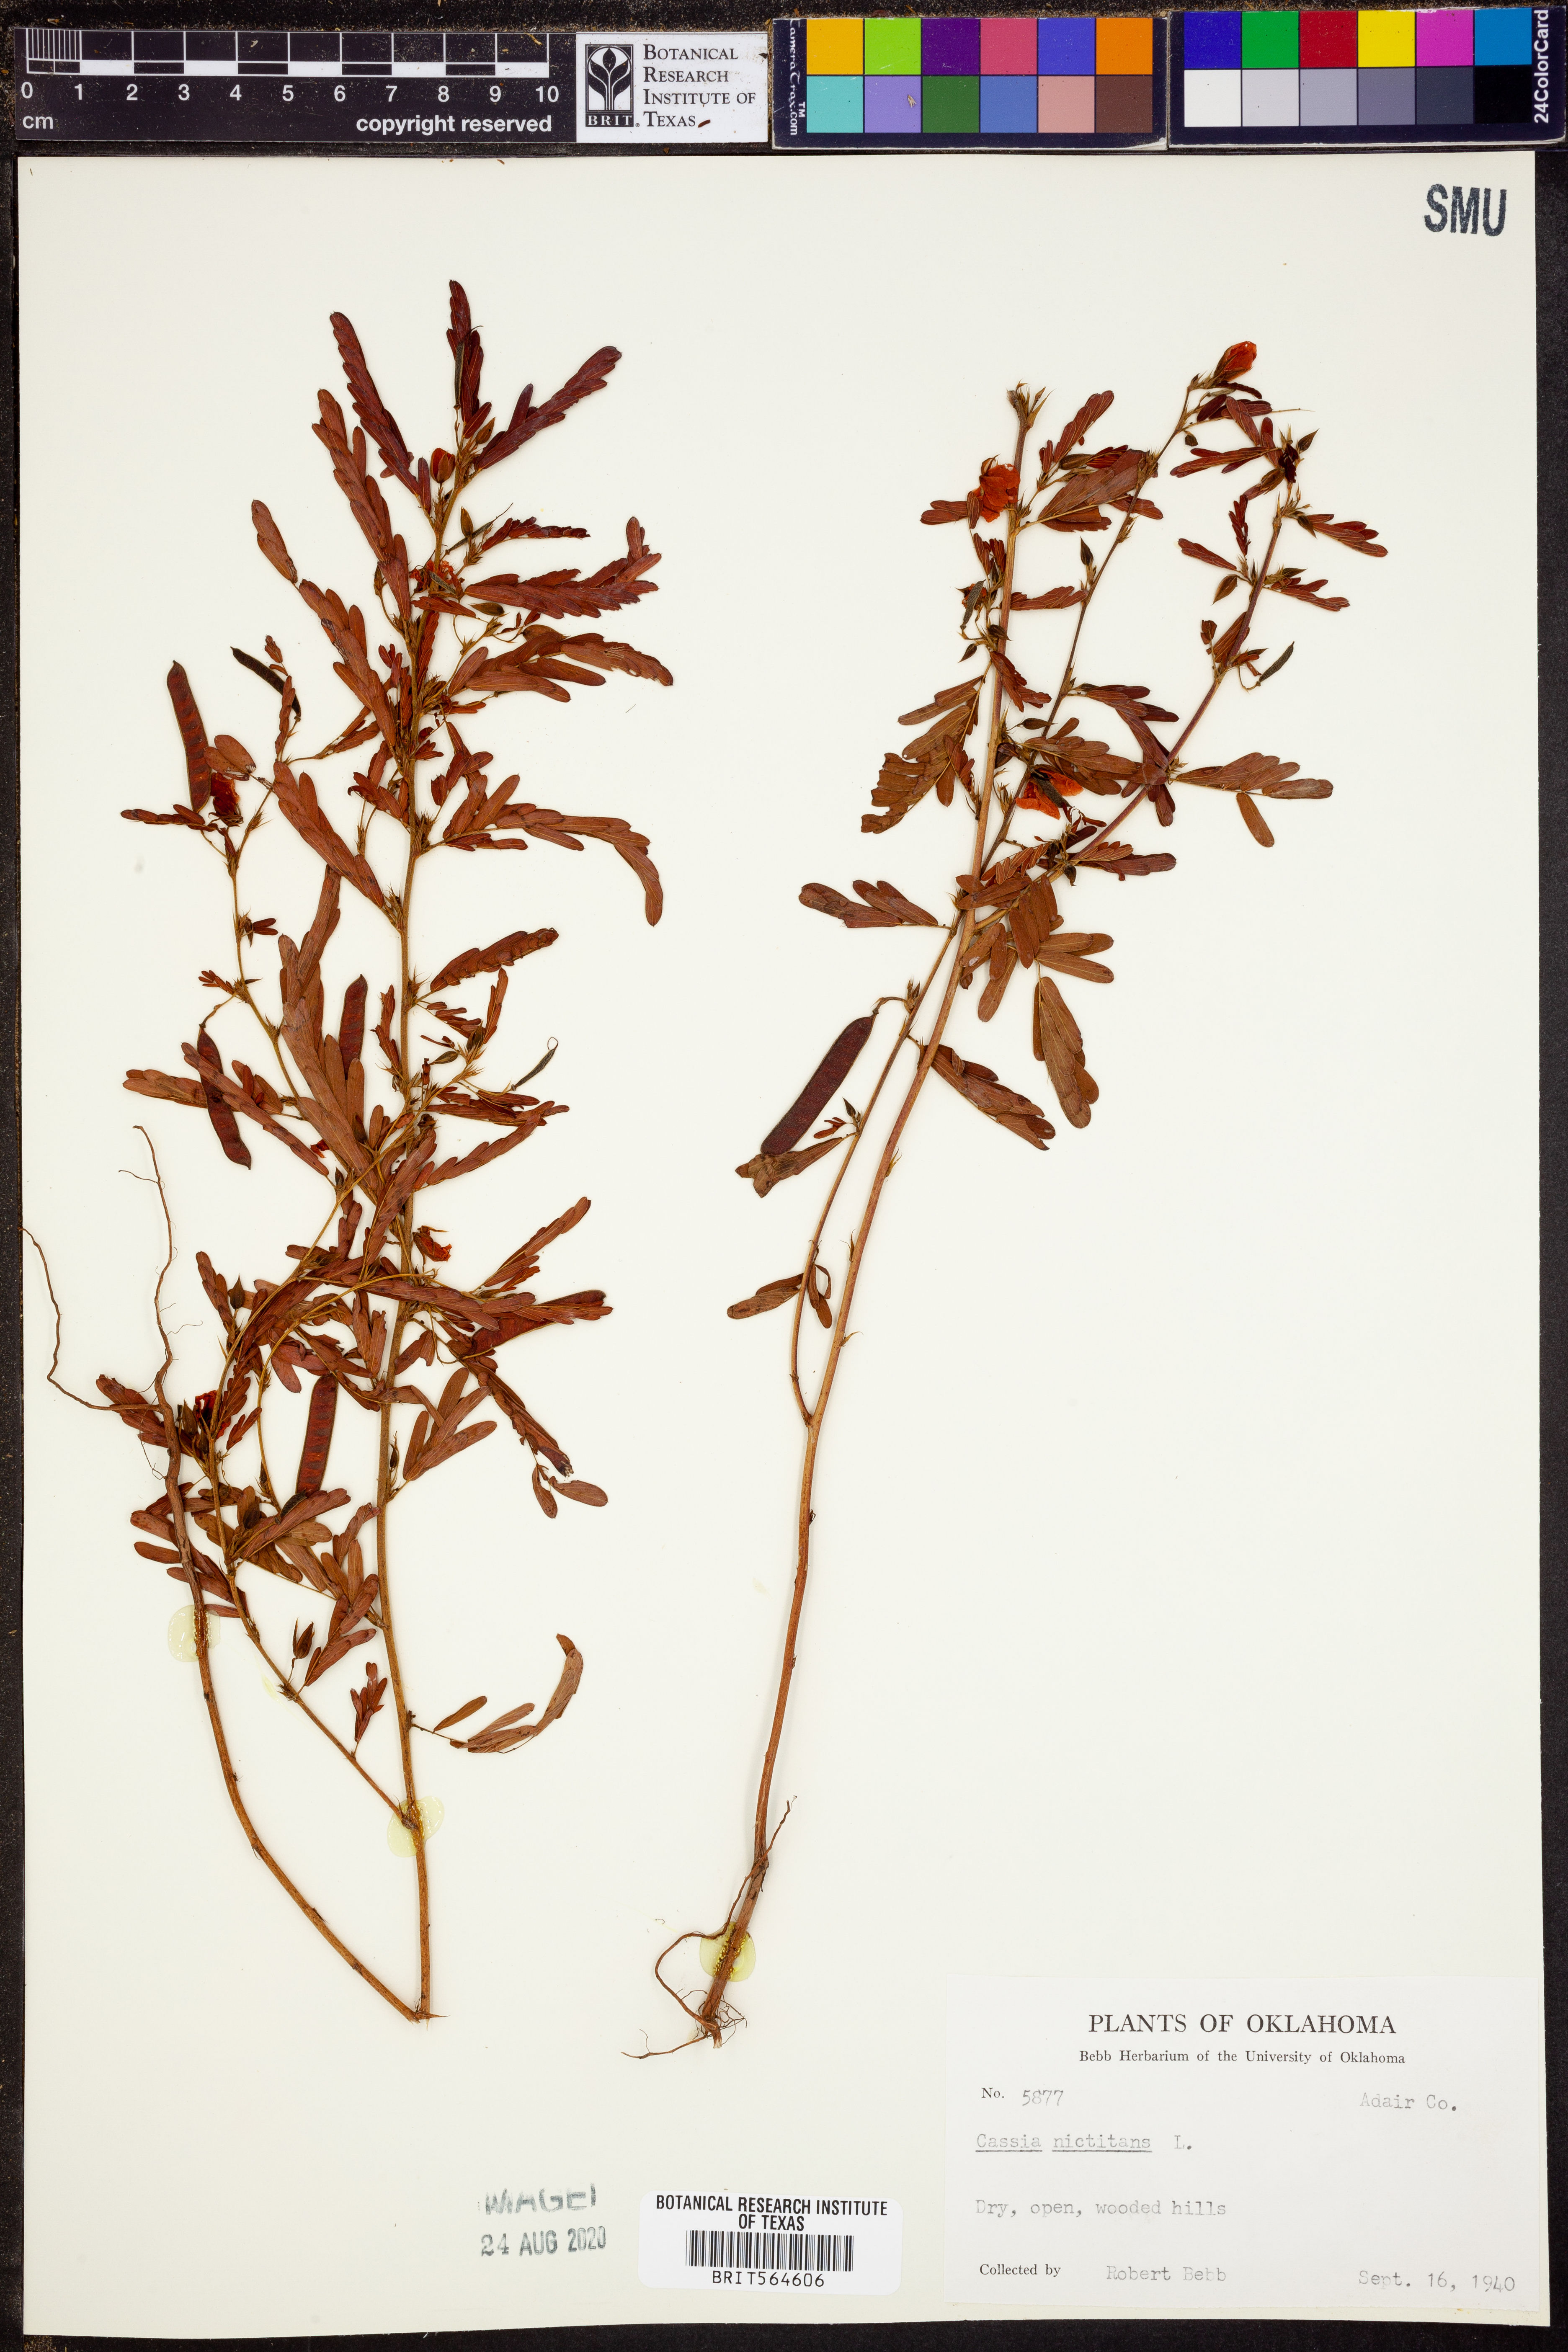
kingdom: Plantae
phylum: Tracheophyta
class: Magnoliopsida
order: Fabales
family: Fabaceae
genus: Chamaecrista
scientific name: Chamaecrista nictitans
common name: Sensitive cassia
